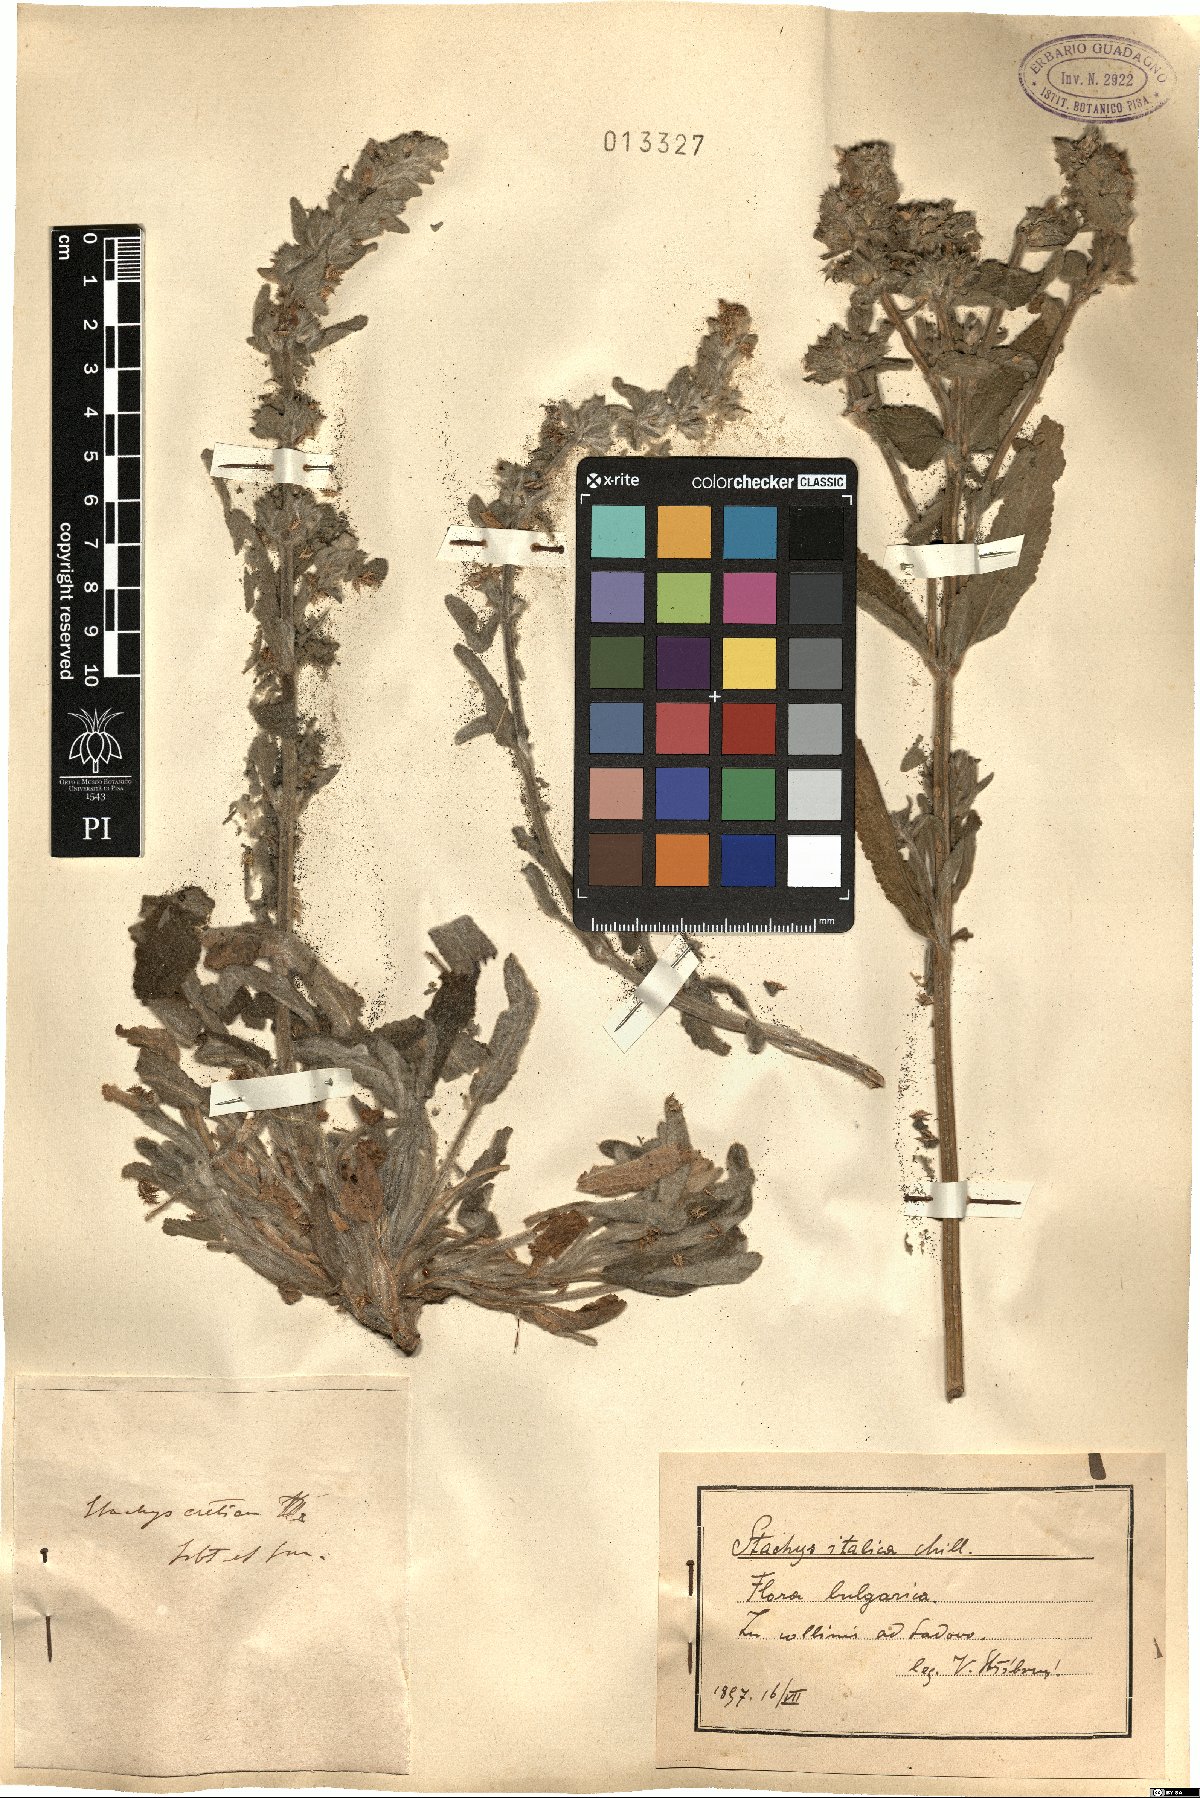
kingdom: Plantae
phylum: Tracheophyta
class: Magnoliopsida
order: Lamiales
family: Lamiaceae
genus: Sideritis
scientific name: Sideritis italica
